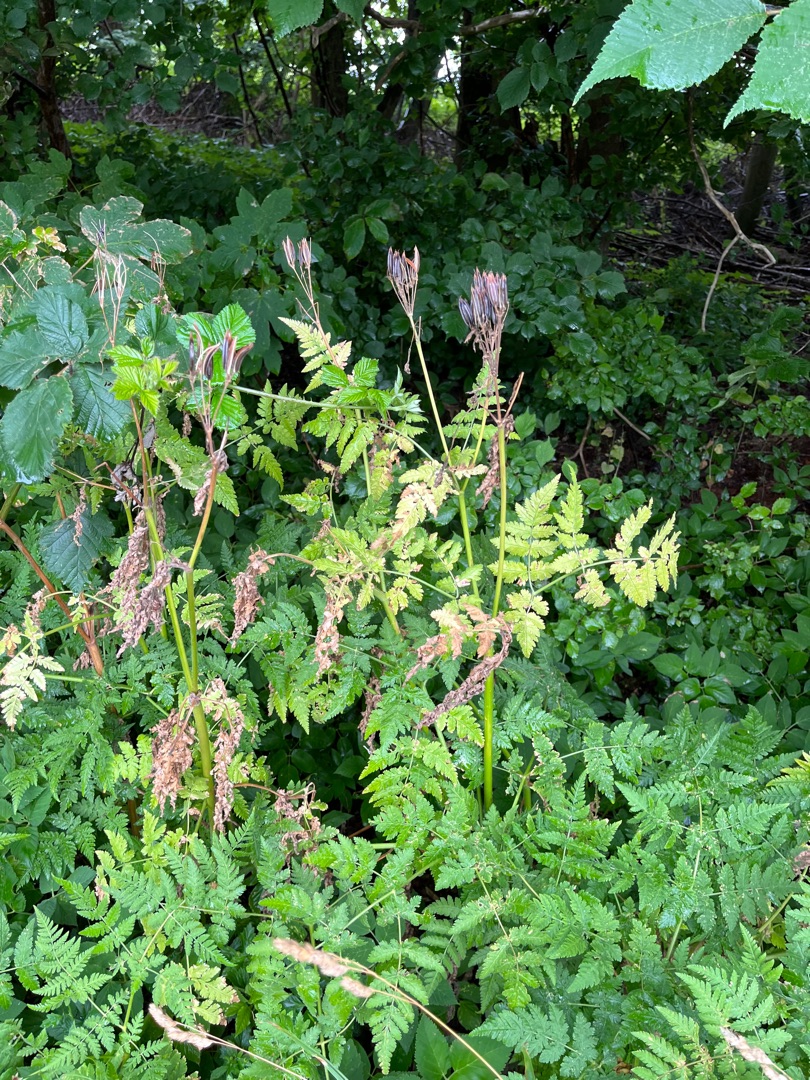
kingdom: Plantae
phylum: Tracheophyta
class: Magnoliopsida
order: Apiales
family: Apiaceae
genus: Myrrhis
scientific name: Myrrhis odorata
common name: Sødskærm
